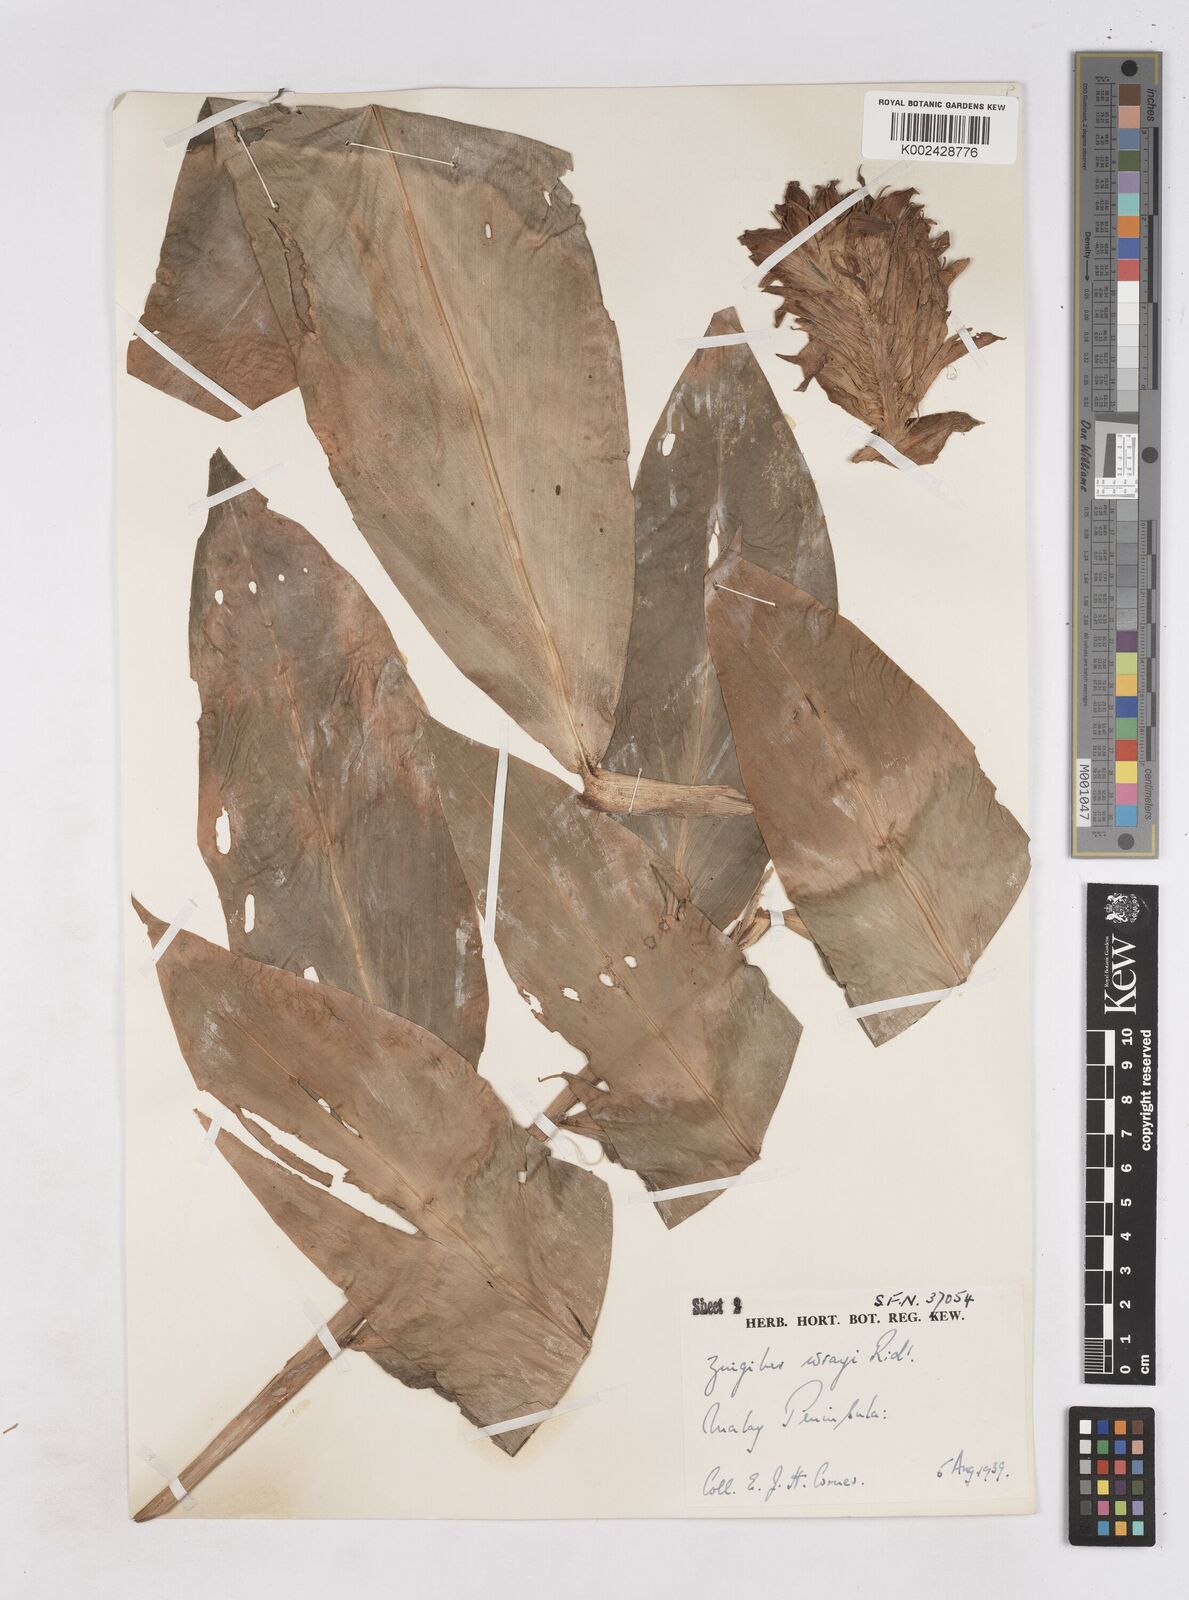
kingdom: Plantae
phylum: Tracheophyta
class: Liliopsida
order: Zingiberales
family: Zingiberaceae
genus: Zingiber
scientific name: Zingiber wrayi
